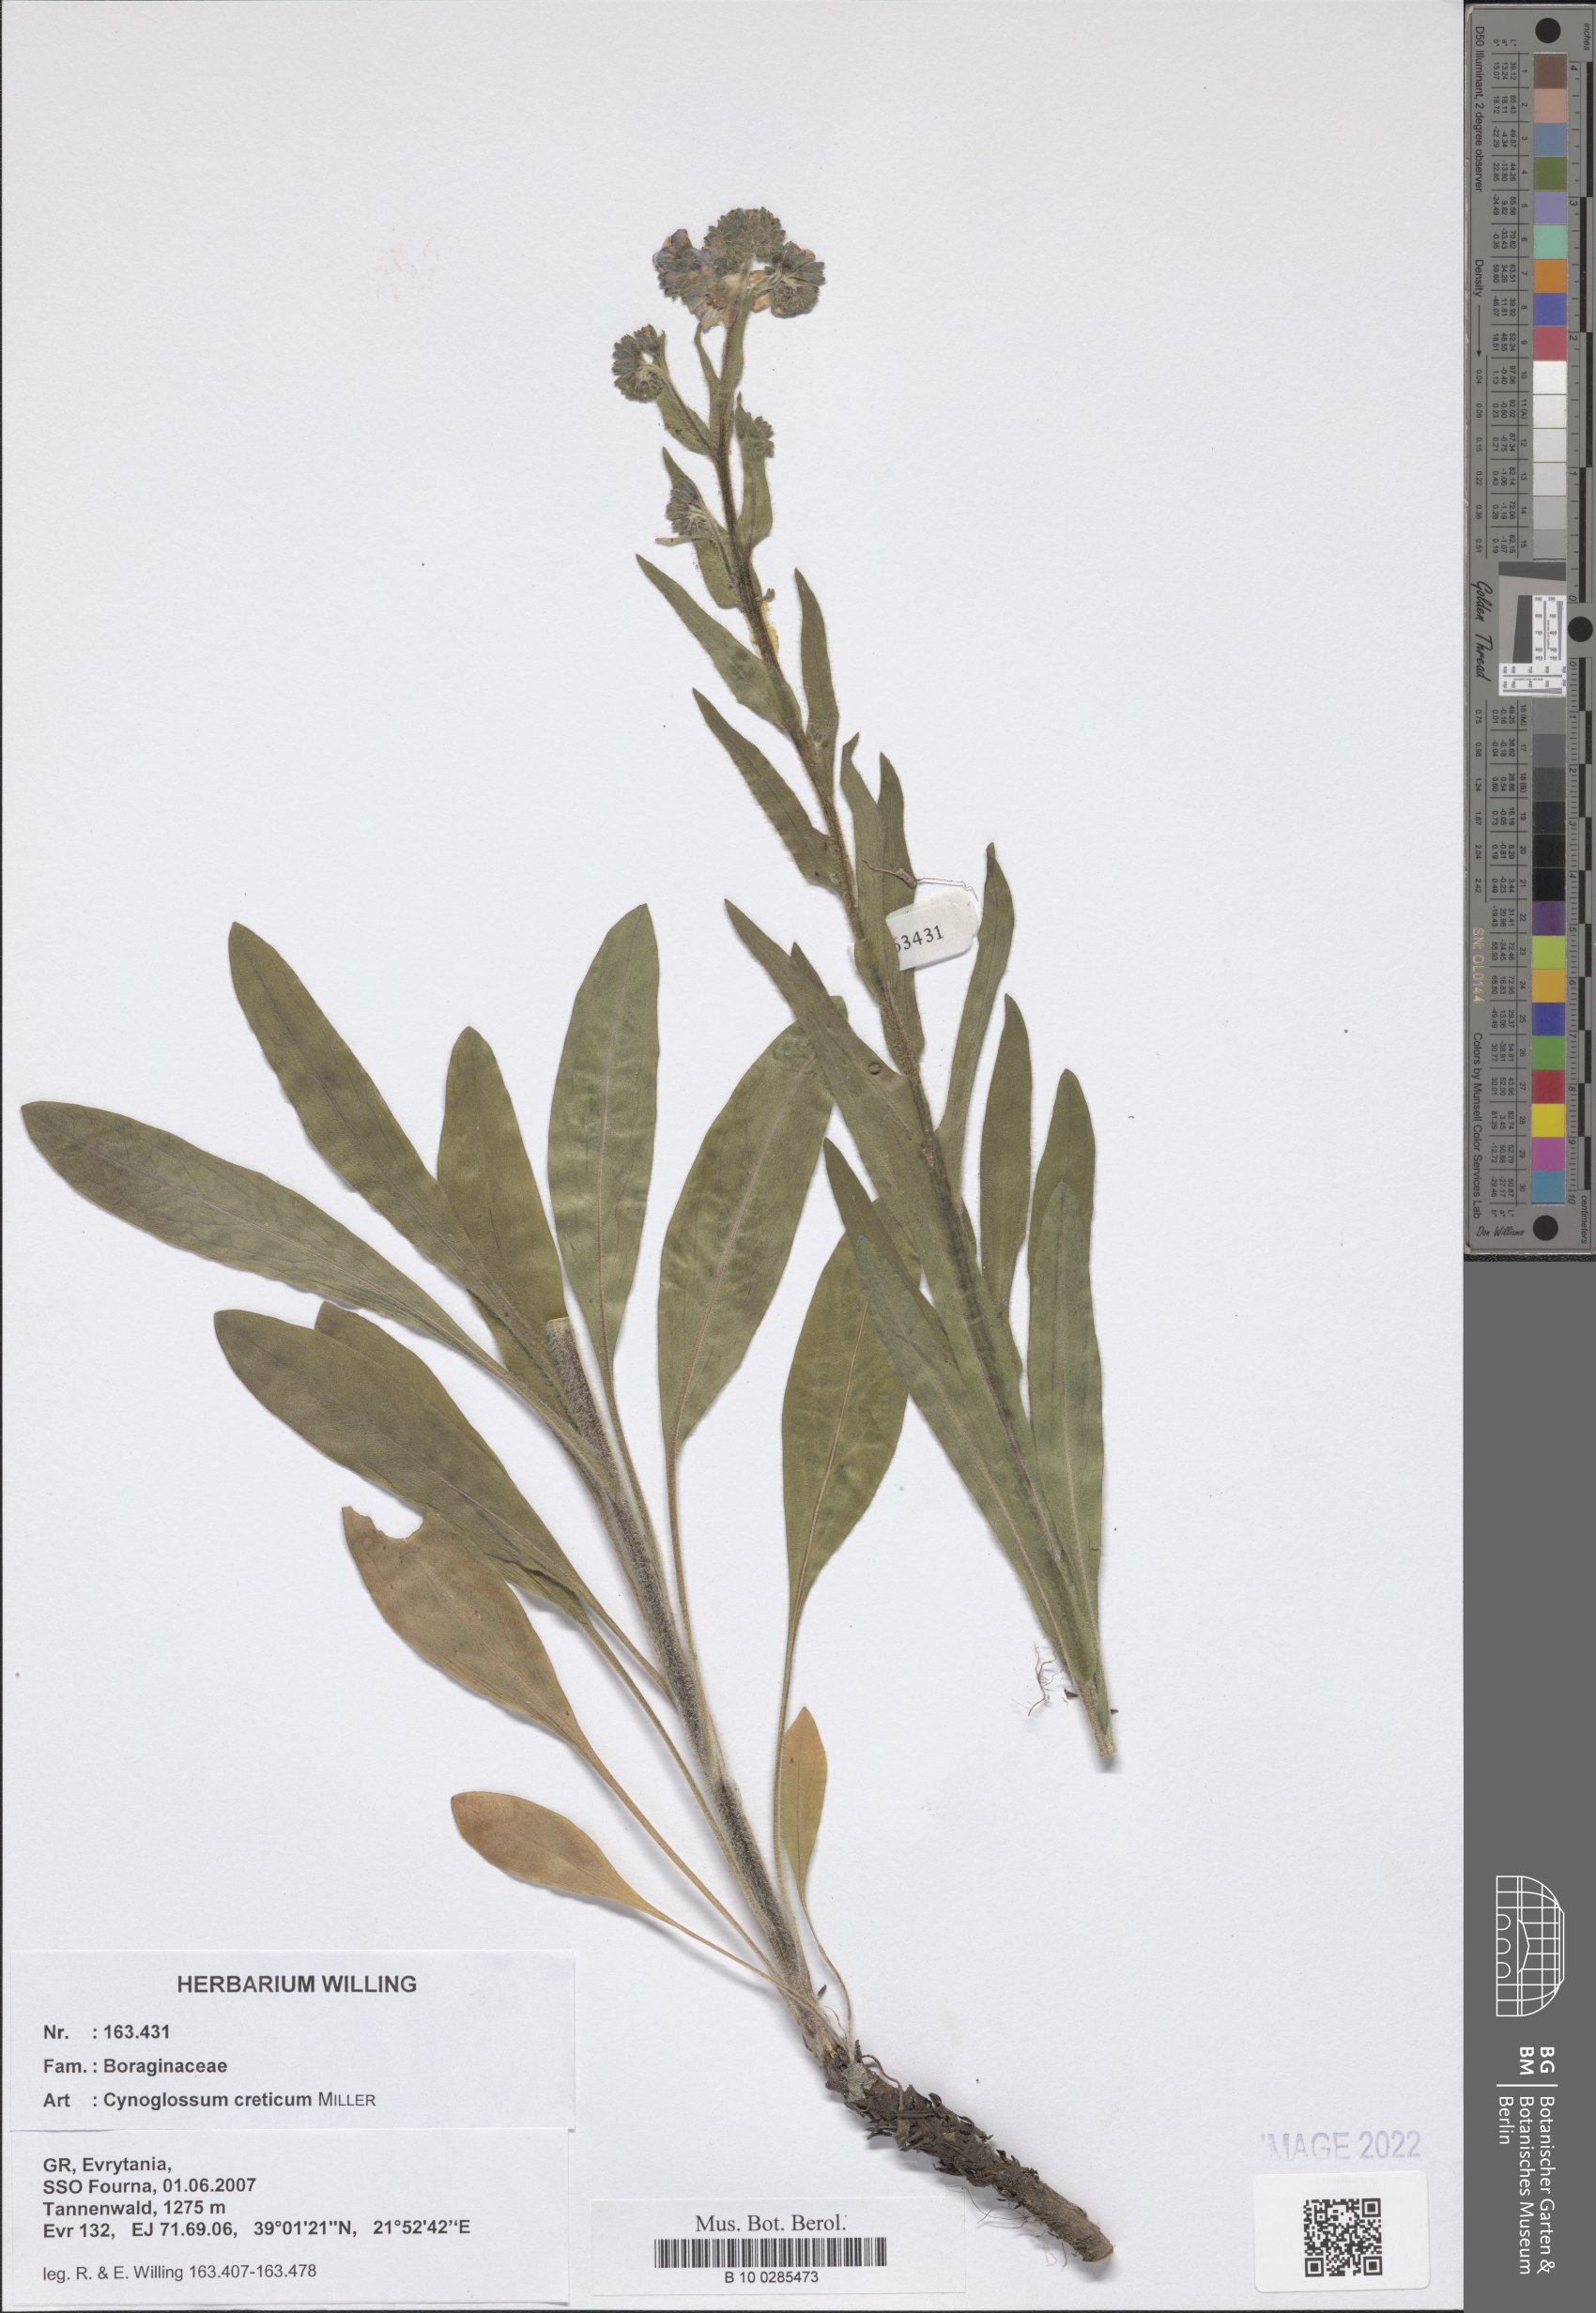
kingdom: Plantae
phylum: Tracheophyta
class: Magnoliopsida
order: Boraginales
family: Boraginaceae
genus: Cynoglossum
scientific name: Cynoglossum creticum
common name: Blue hound's tongue
